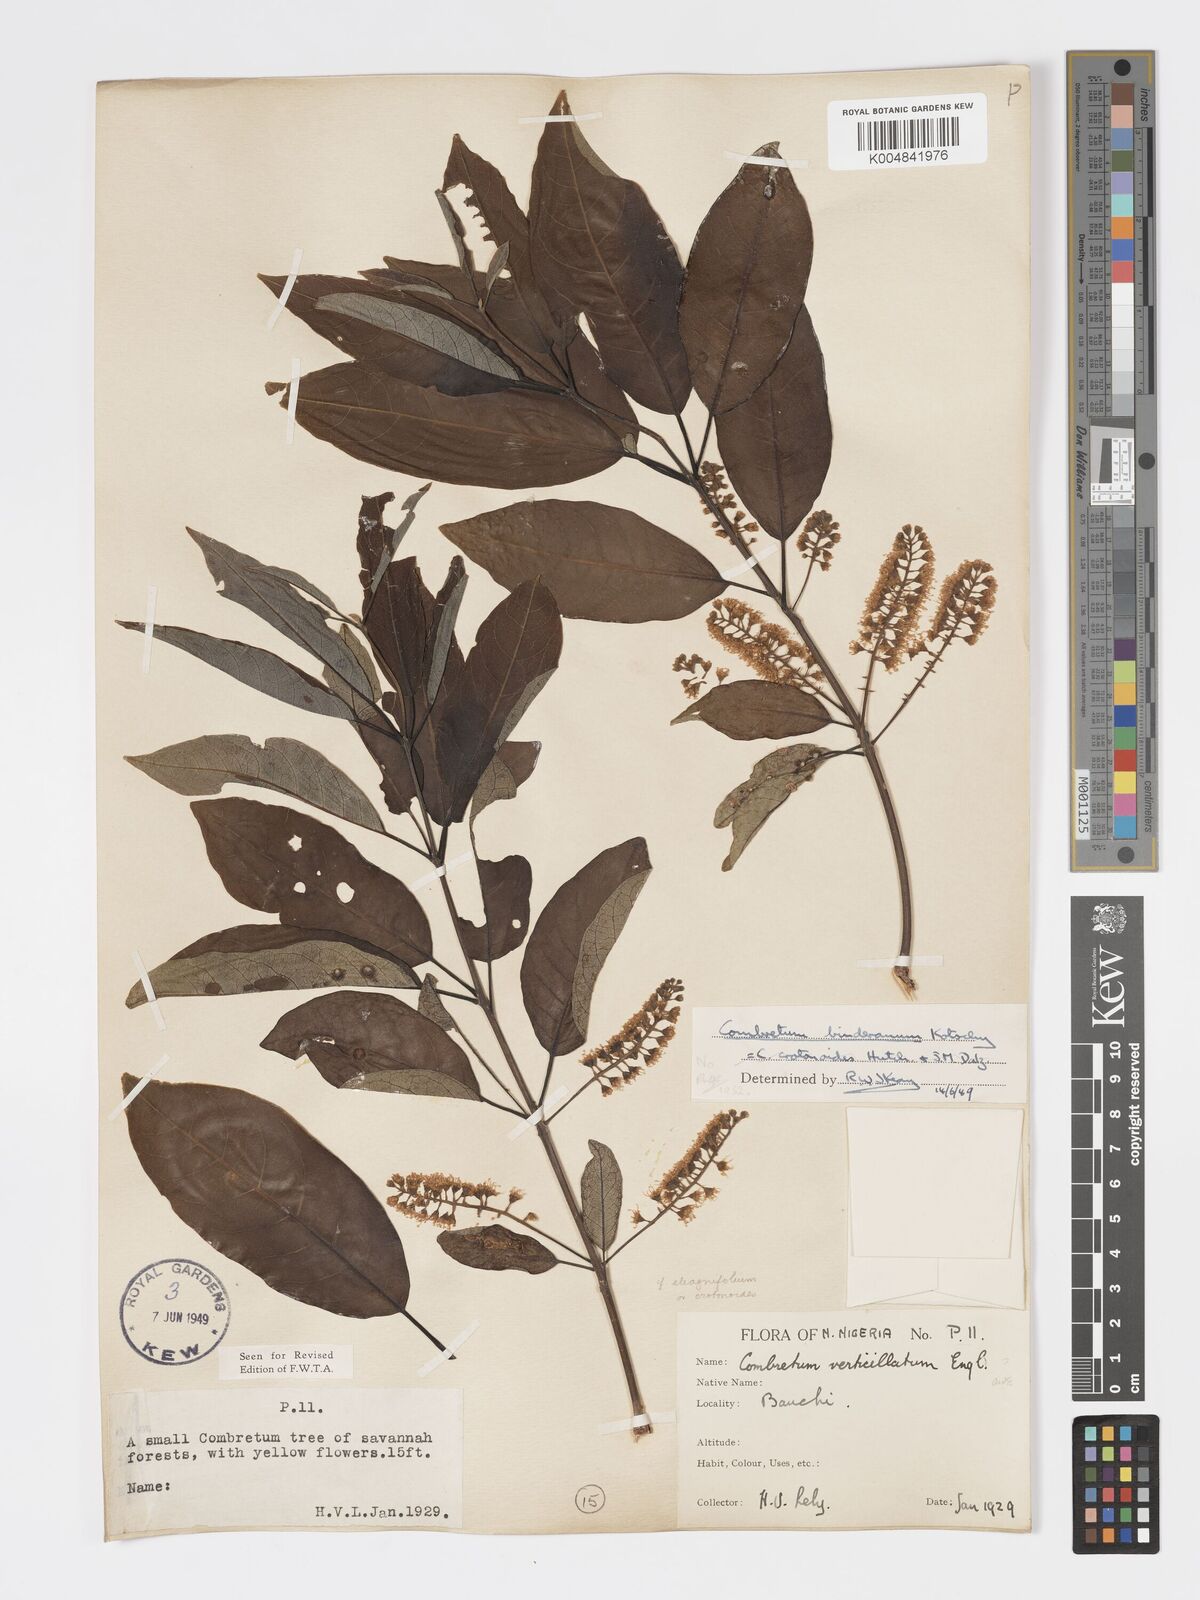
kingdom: Plantae
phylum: Tracheophyta
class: Magnoliopsida
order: Myrtales
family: Combretaceae
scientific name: Combretaceae
